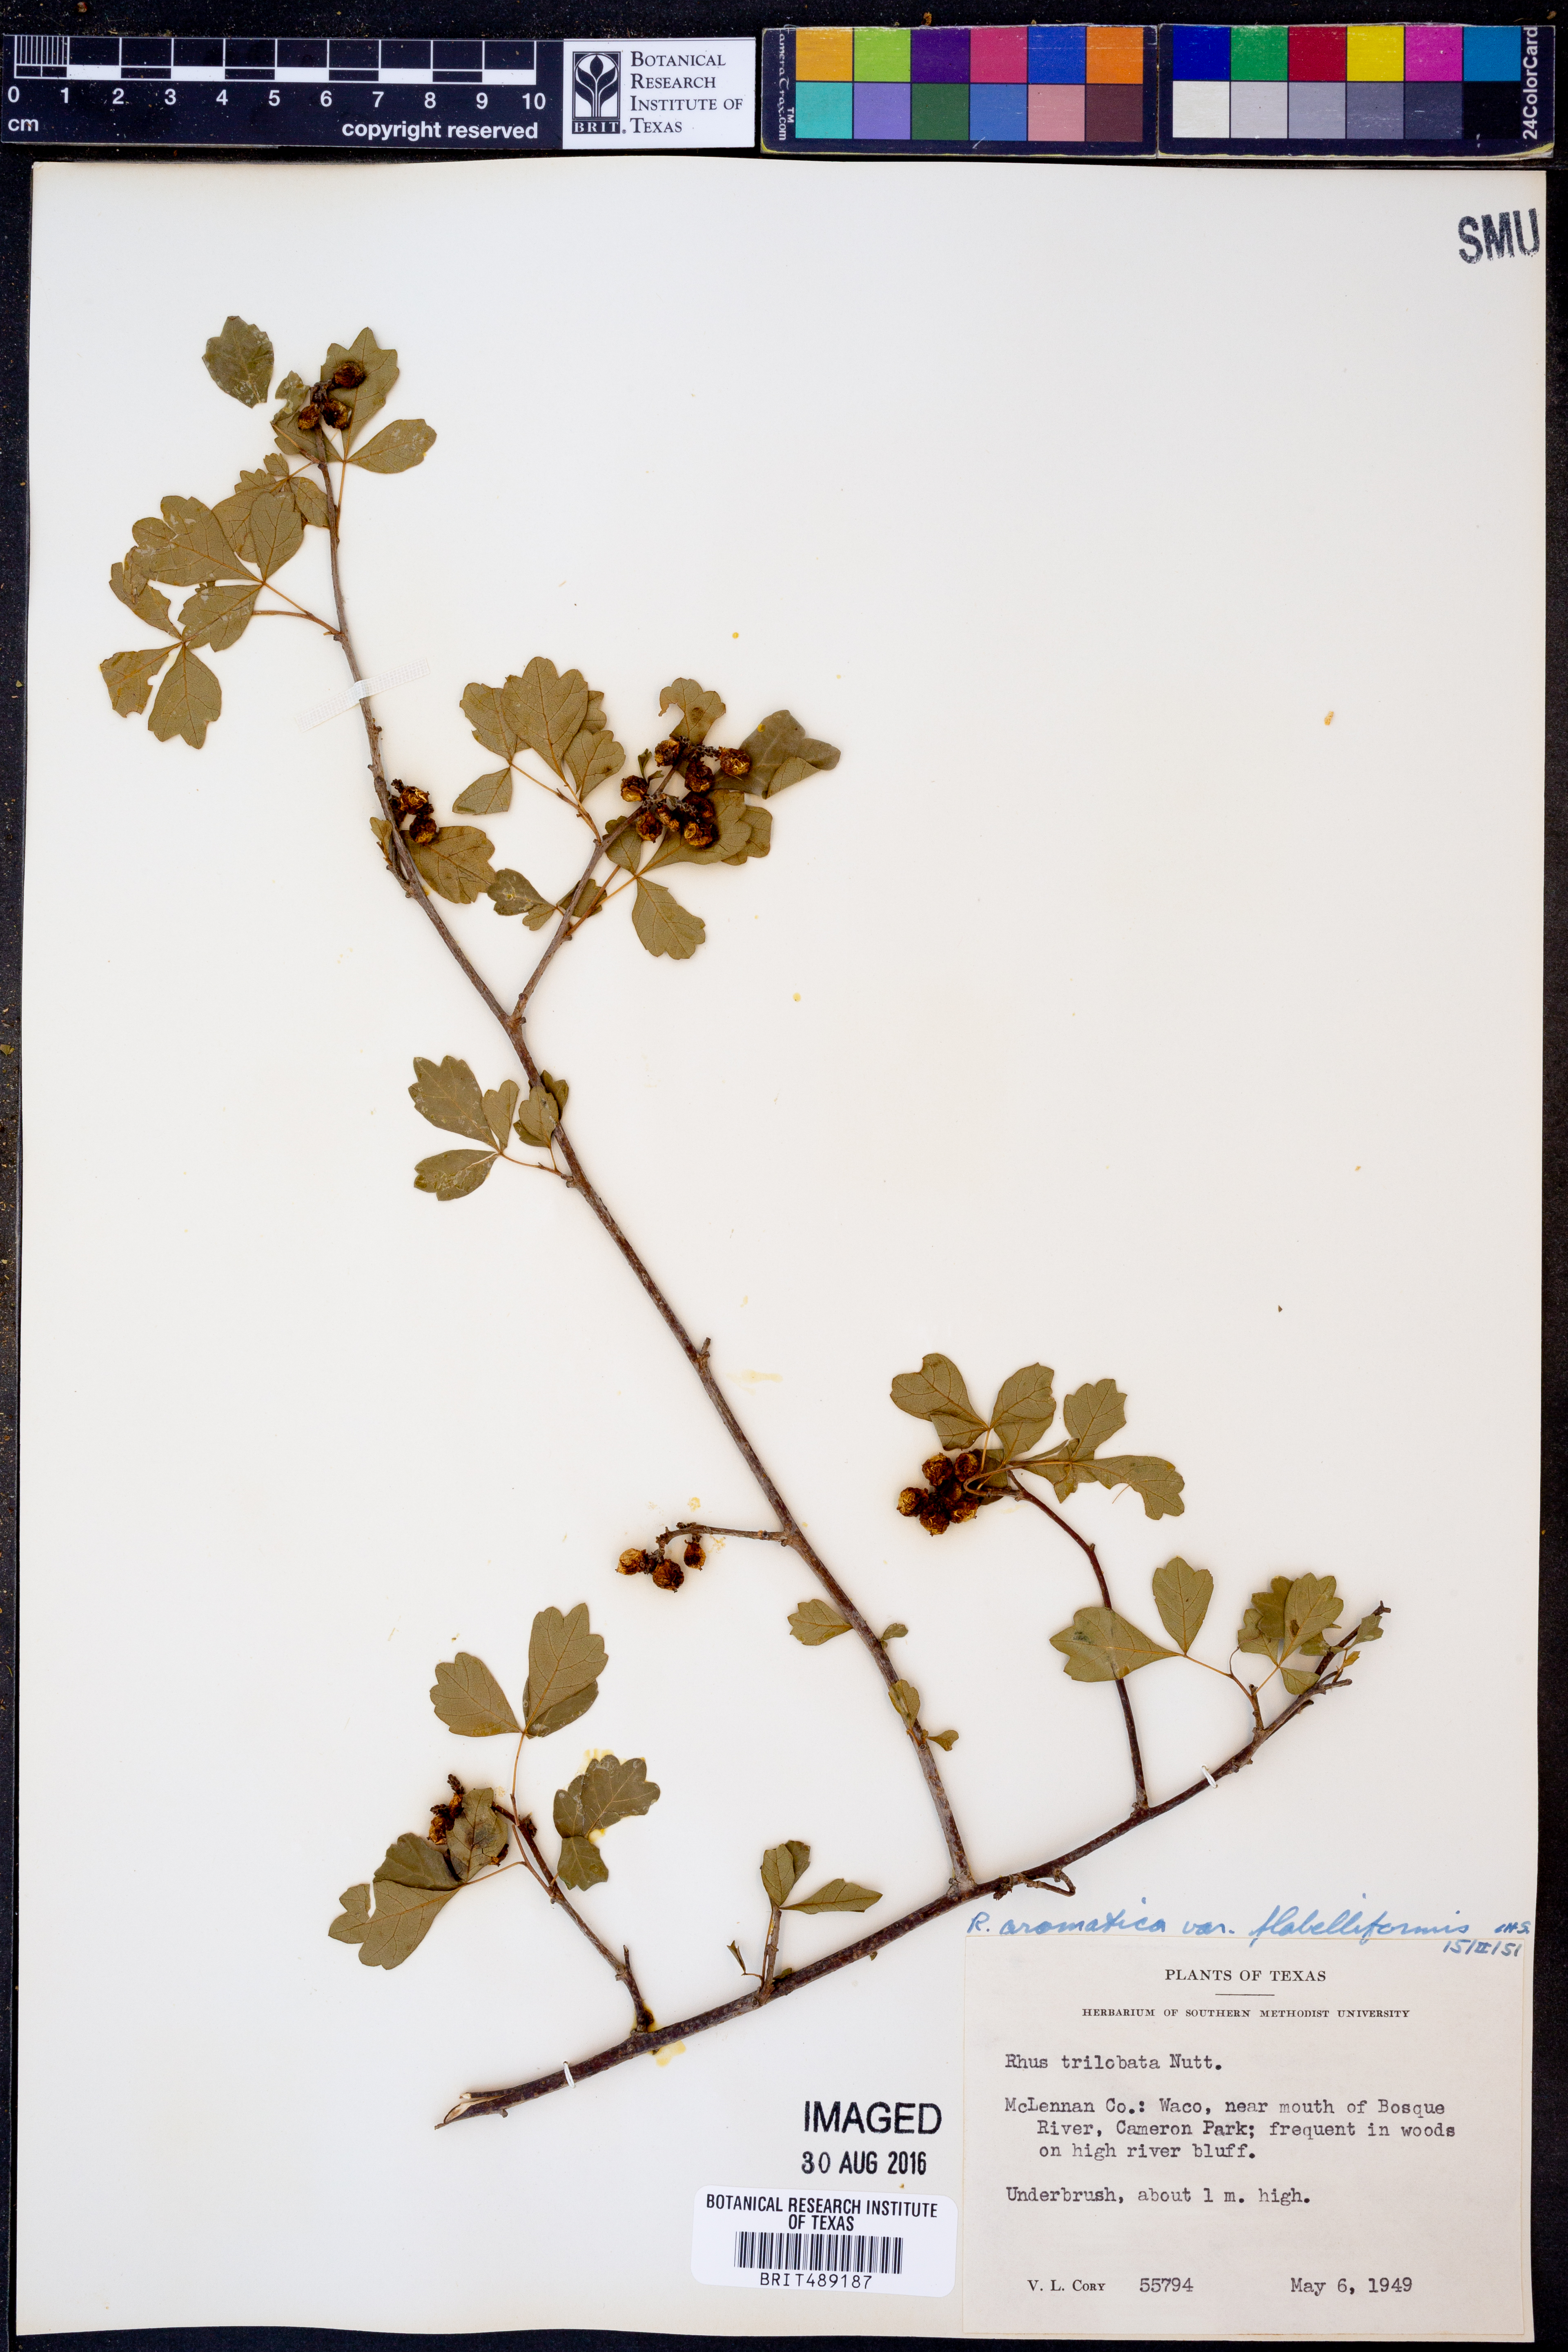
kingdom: Plantae
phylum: Tracheophyta
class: Magnoliopsida
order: Sapindales
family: Anacardiaceae
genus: Rhus
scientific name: Rhus trilobata
